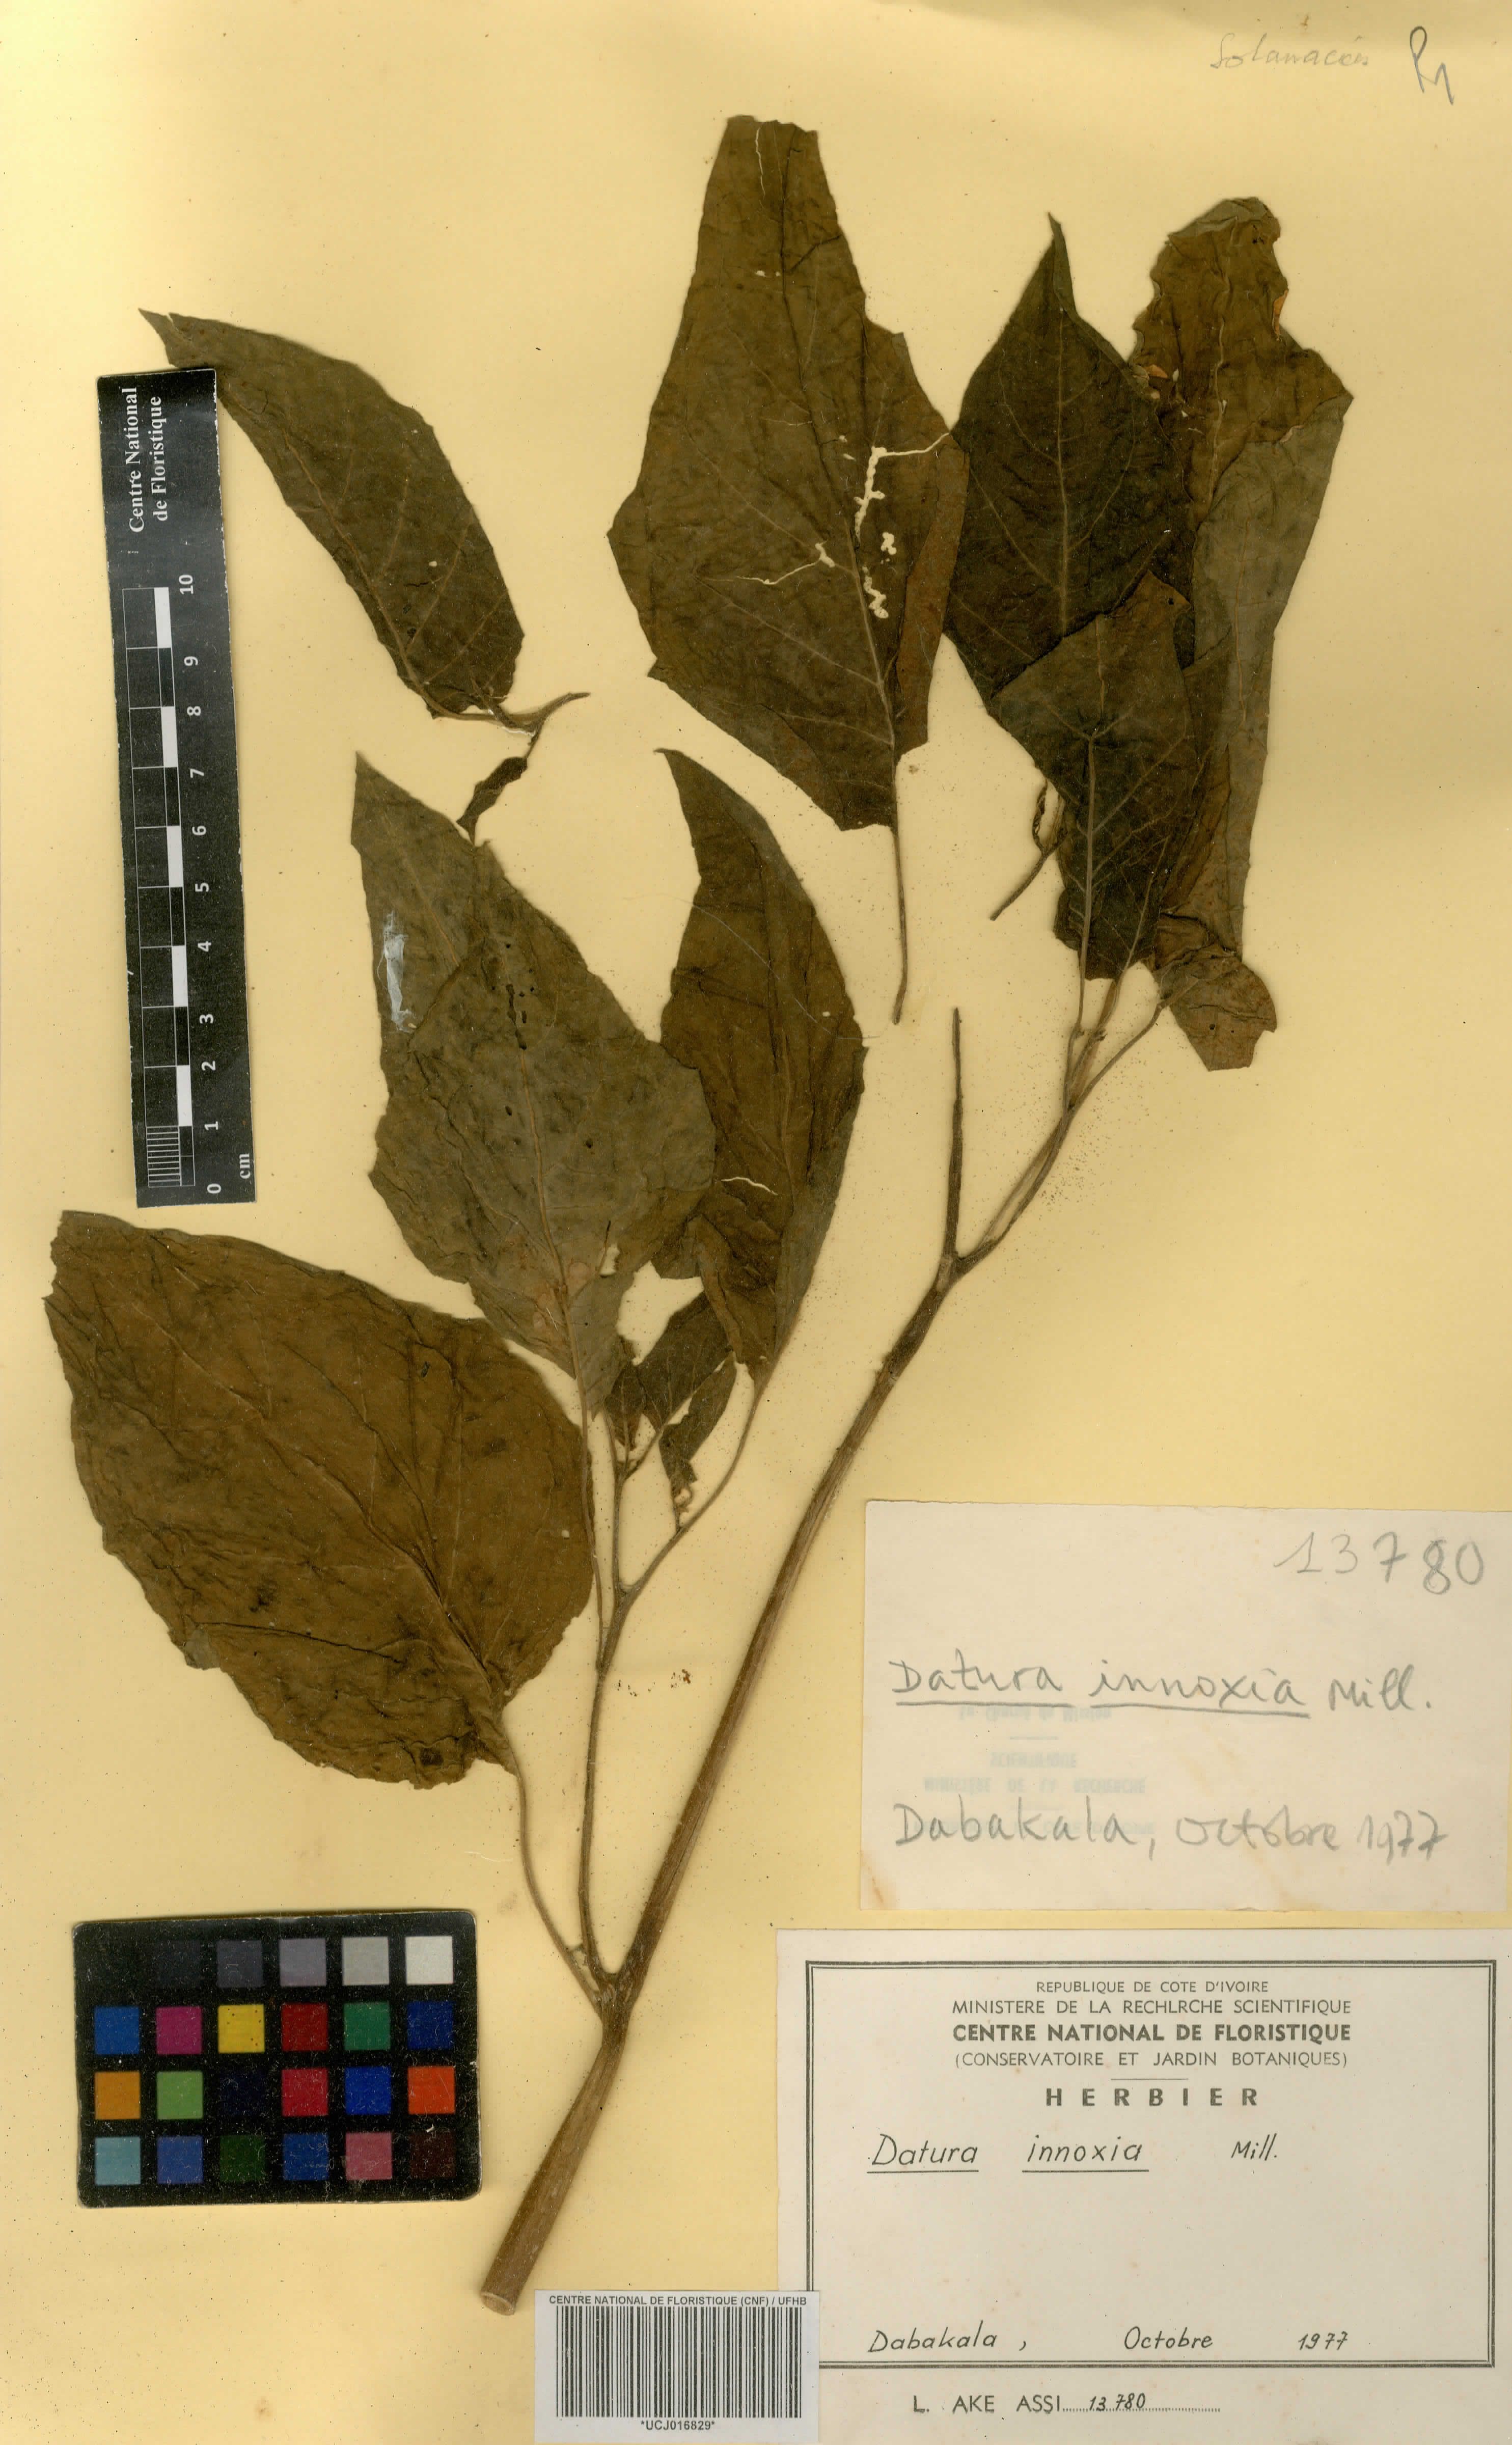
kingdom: Plantae
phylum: Tracheophyta
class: Magnoliopsida
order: Solanales
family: Solanaceae
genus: Datura
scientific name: Datura innoxia
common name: Downy thorn-apple
